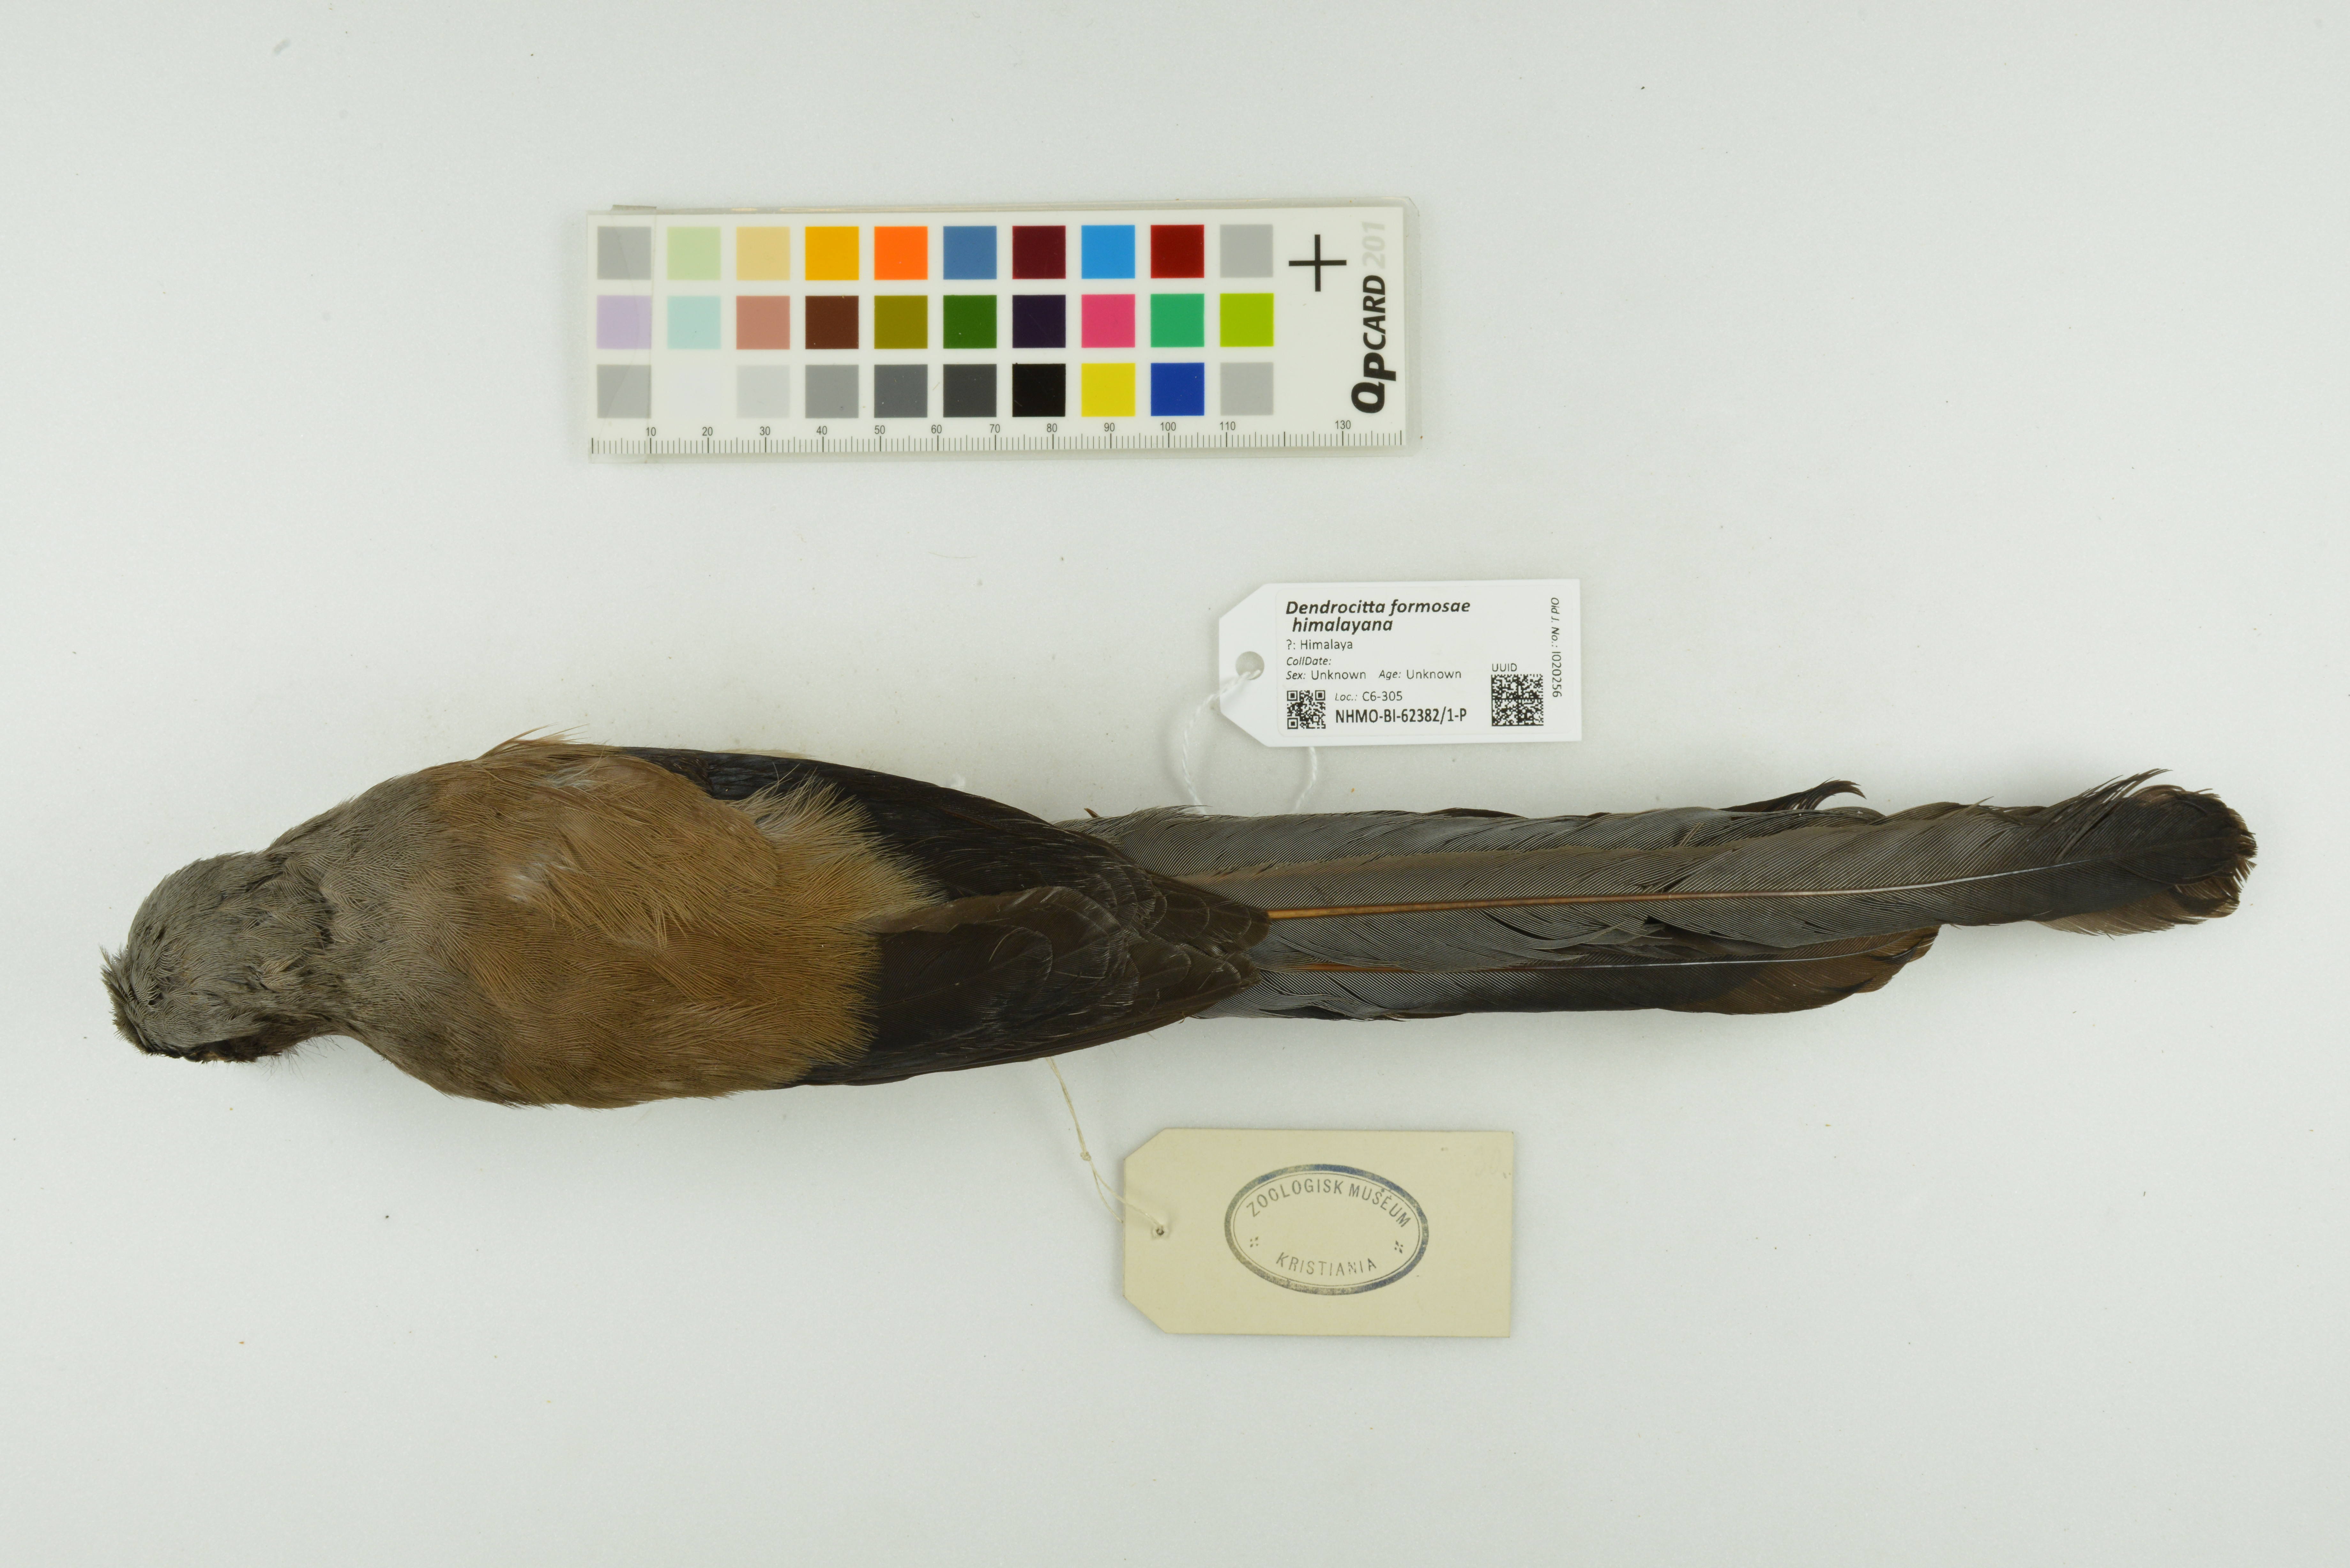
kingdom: Animalia
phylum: Chordata
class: Aves
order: Passeriformes
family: Corvidae
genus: Dendrocitta
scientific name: Dendrocitta formosae
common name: Grey treepie
